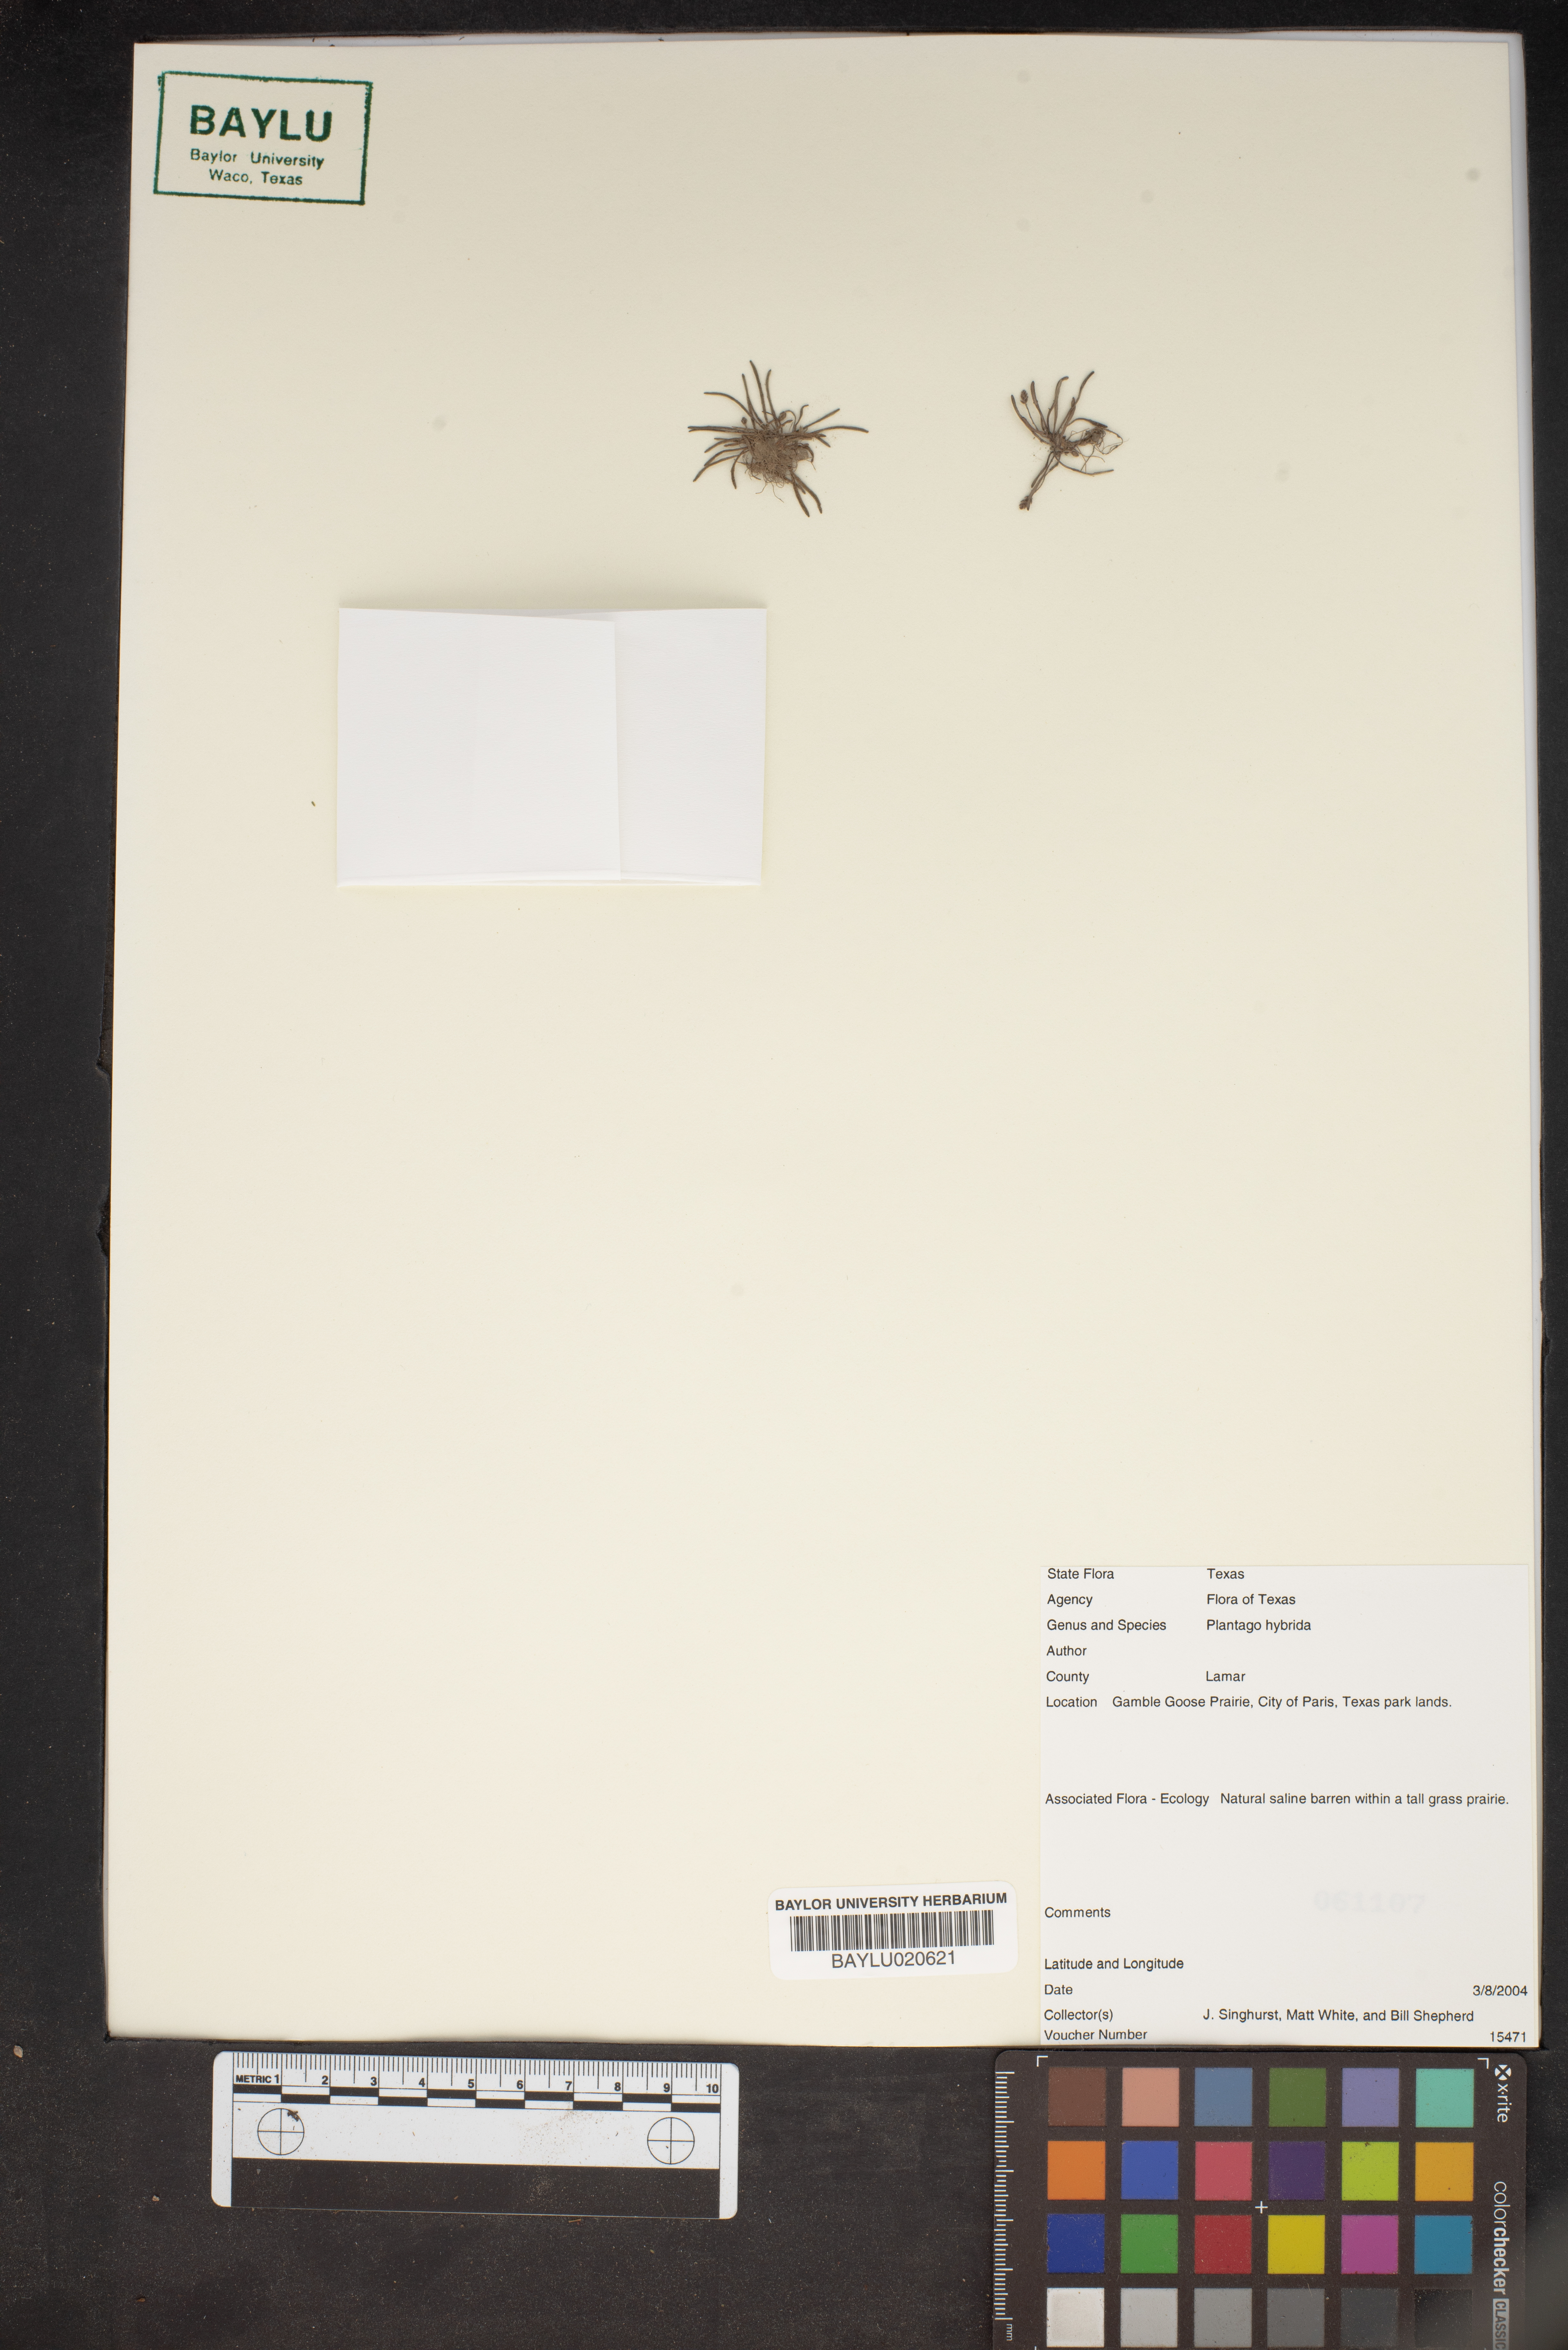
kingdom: Plantae
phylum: Tracheophyta
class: Magnoliopsida
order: Lamiales
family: Plantaginaceae
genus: Plantago
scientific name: Plantago pusilla
